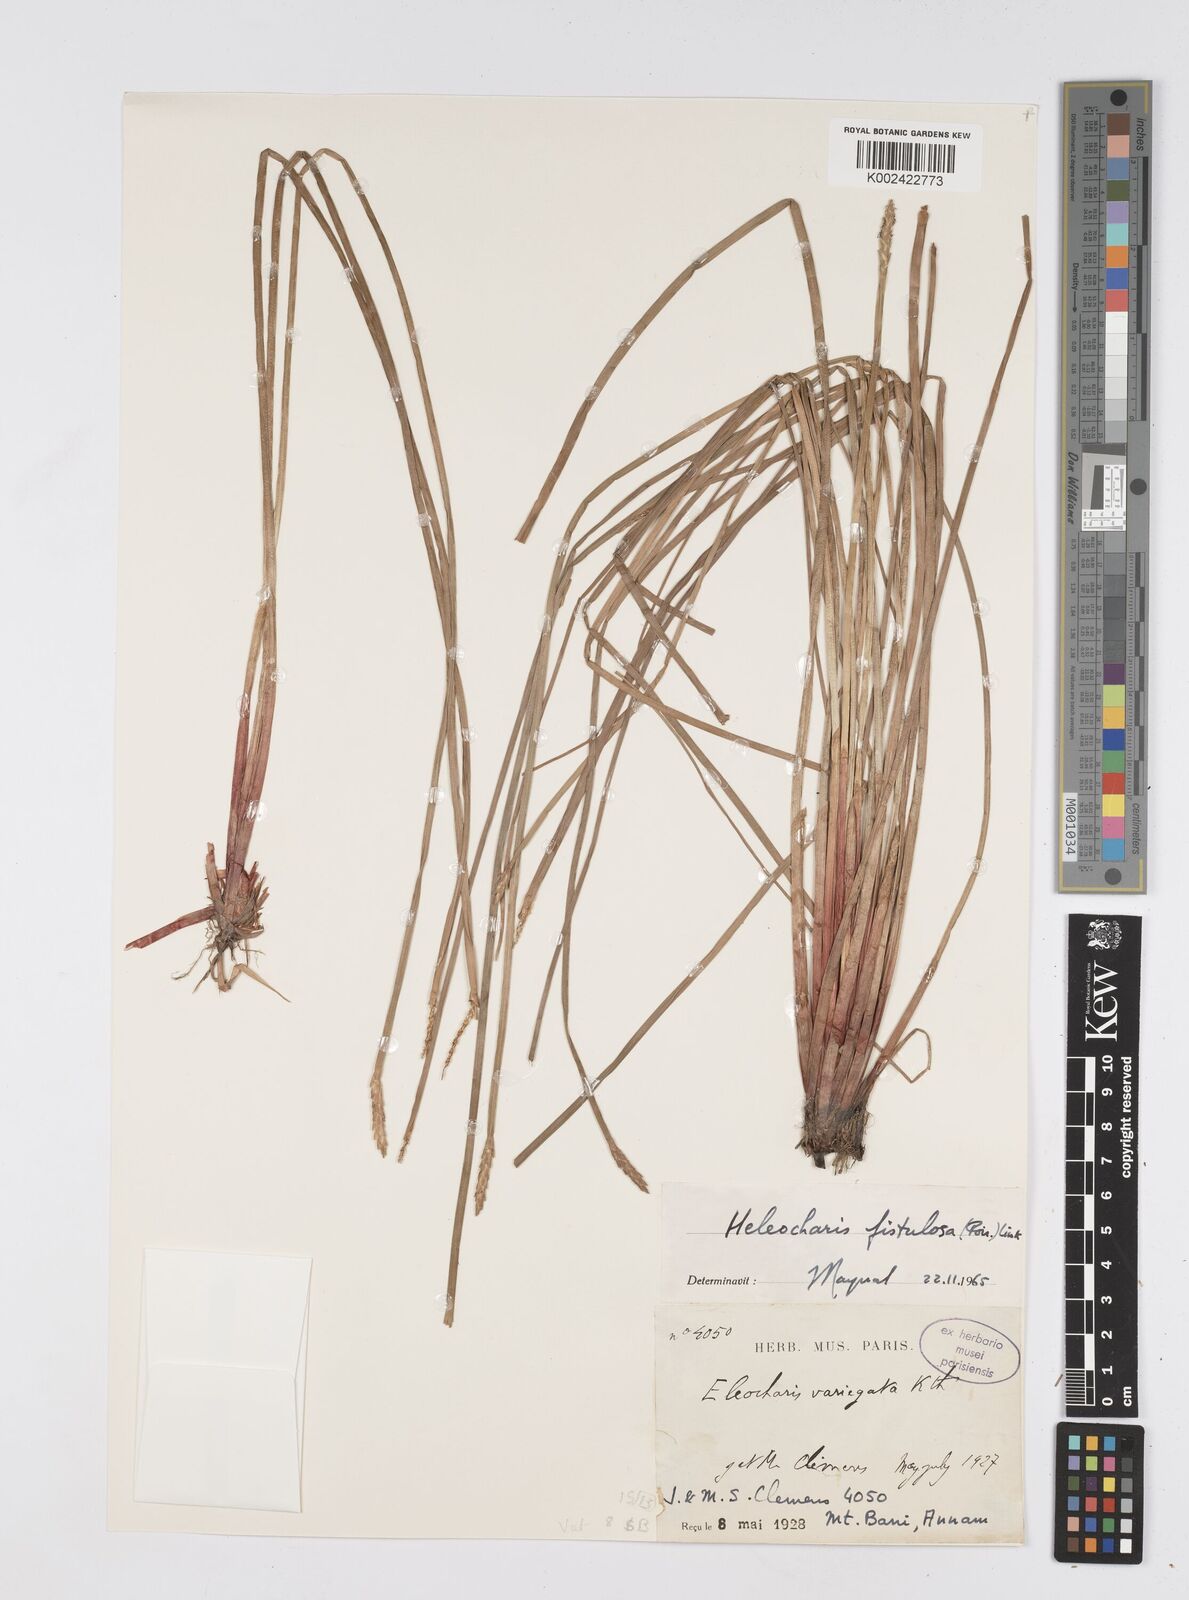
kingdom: Plantae
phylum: Tracheophyta
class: Liliopsida
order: Poales
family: Cyperaceae
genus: Eleocharis
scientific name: Eleocharis acutangula
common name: Acute spikerush
